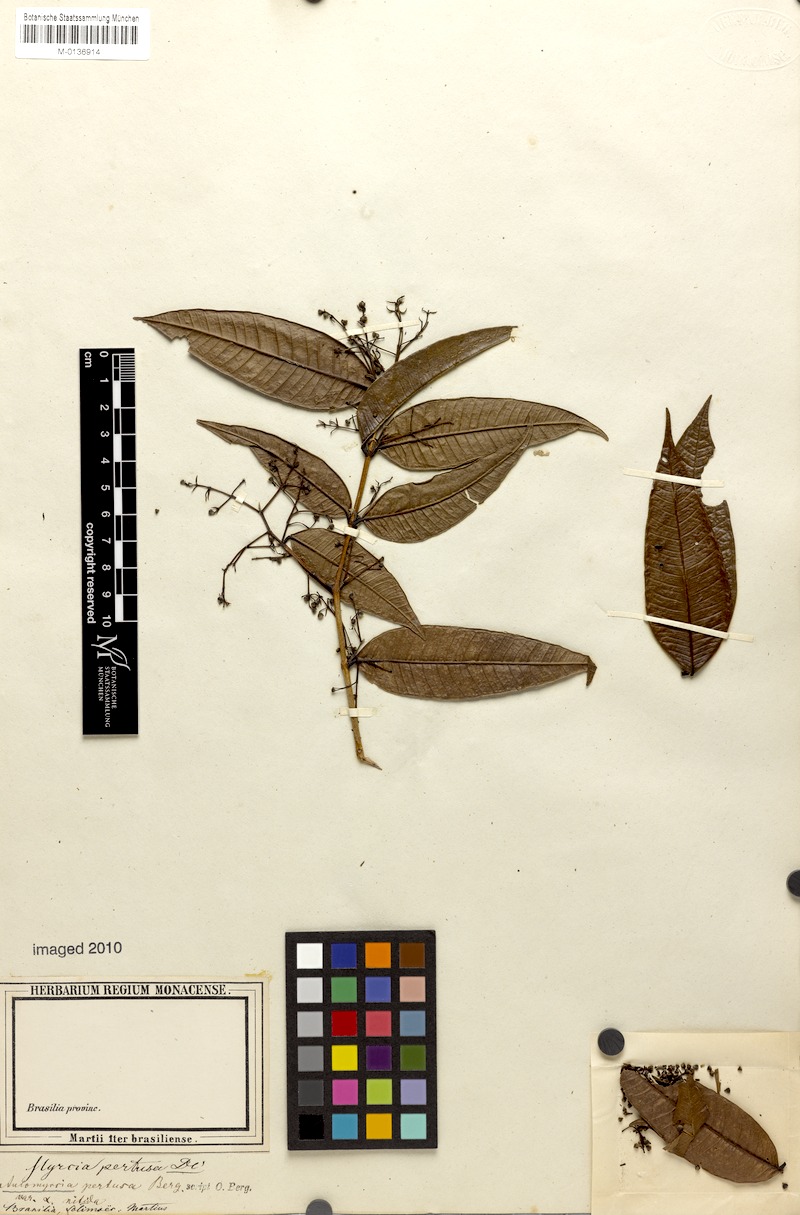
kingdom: Plantae
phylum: Tracheophyta
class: Magnoliopsida
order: Myrtales
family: Myrtaceae
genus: Myrcia
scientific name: Myrcia pertusa
